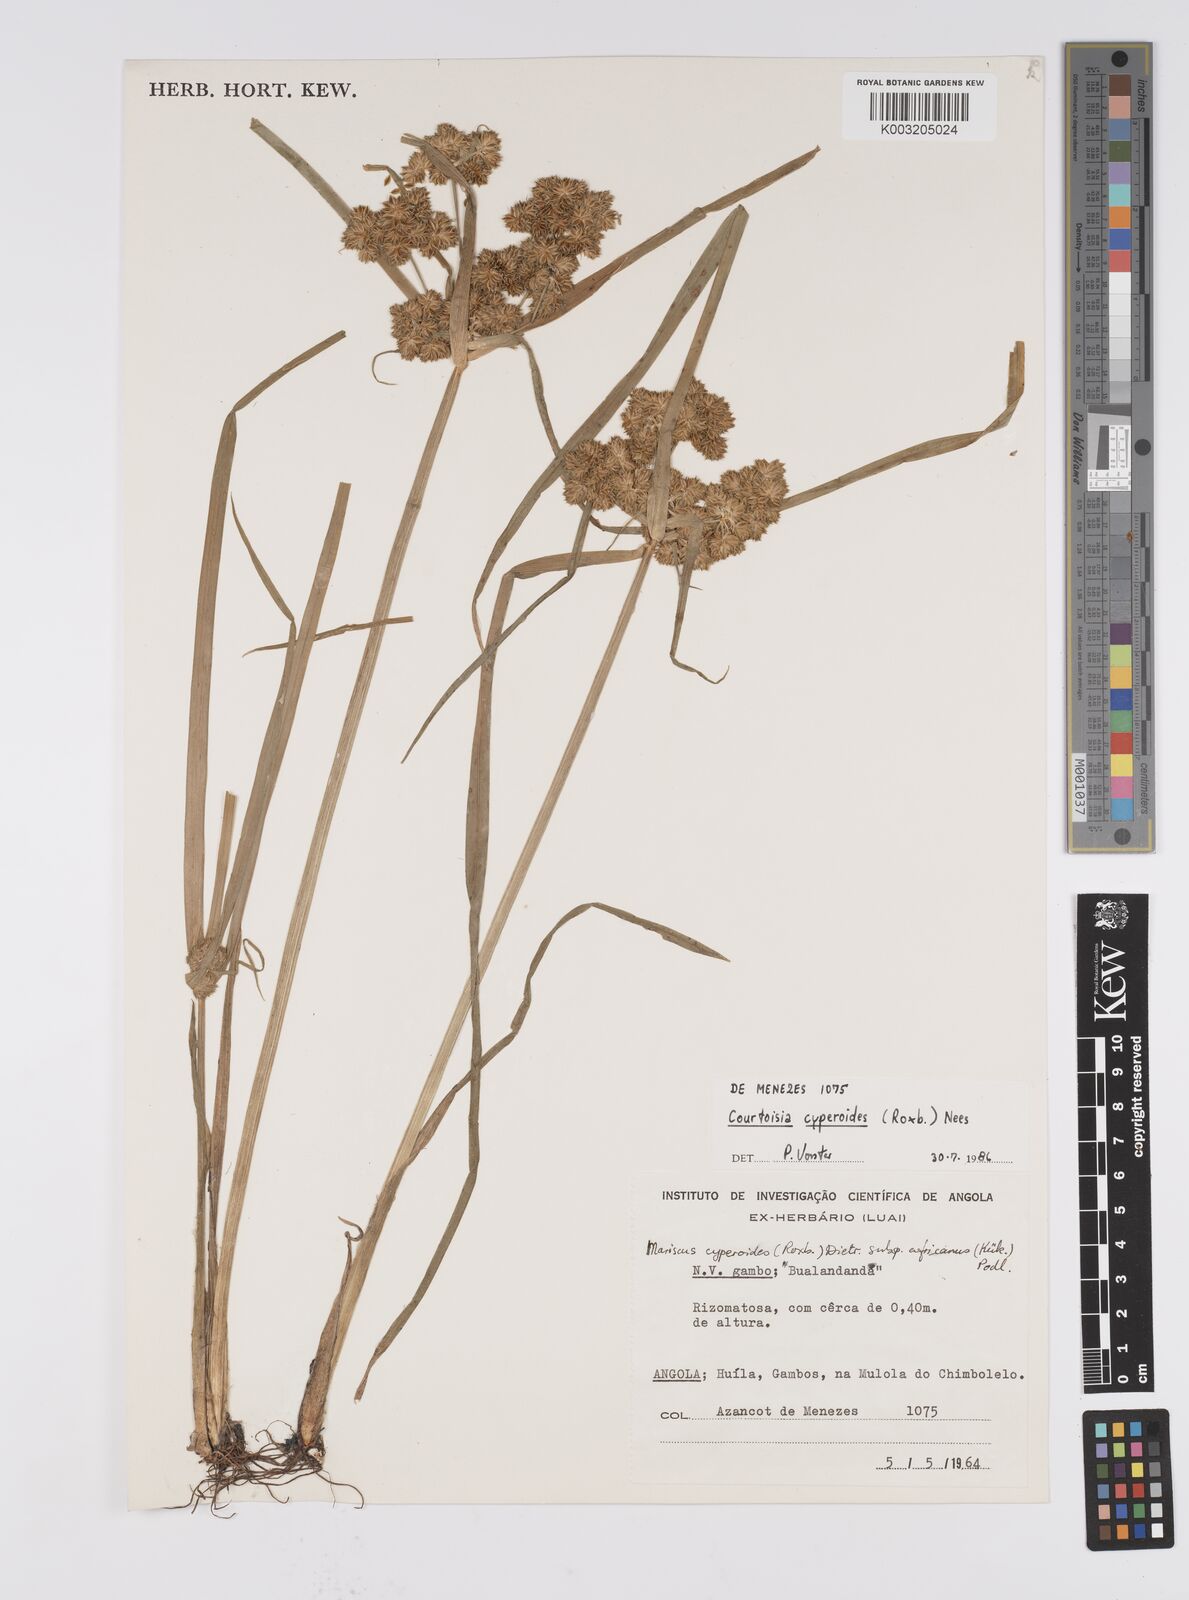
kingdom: Plantae
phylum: Tracheophyta
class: Liliopsida
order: Poales
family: Cyperaceae
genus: Cyperus
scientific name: Cyperus cyperoides
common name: Pacific island flat sedge
